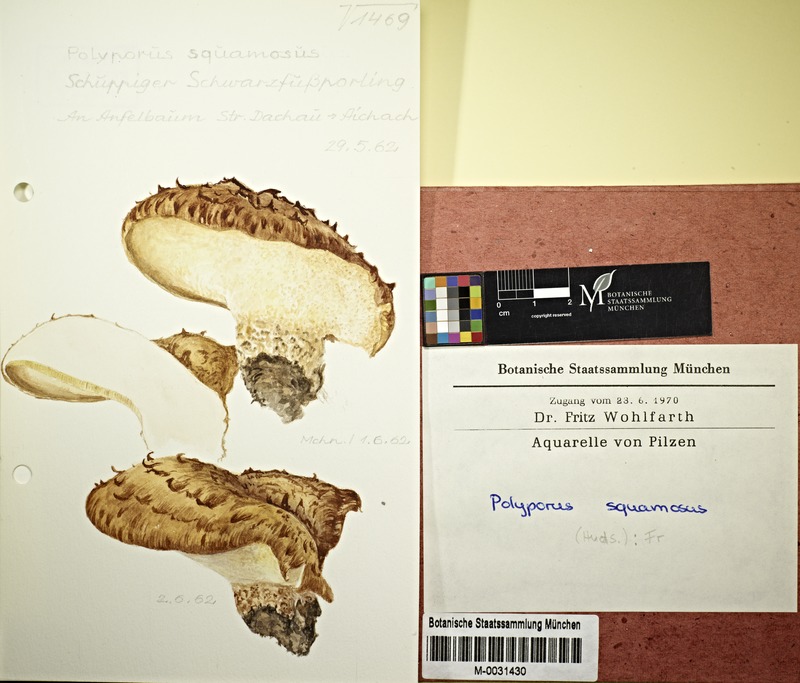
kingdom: Fungi
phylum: Basidiomycota
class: Agaricomycetes
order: Polyporales
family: Polyporaceae
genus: Polyporus
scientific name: Polyporus squamosus
